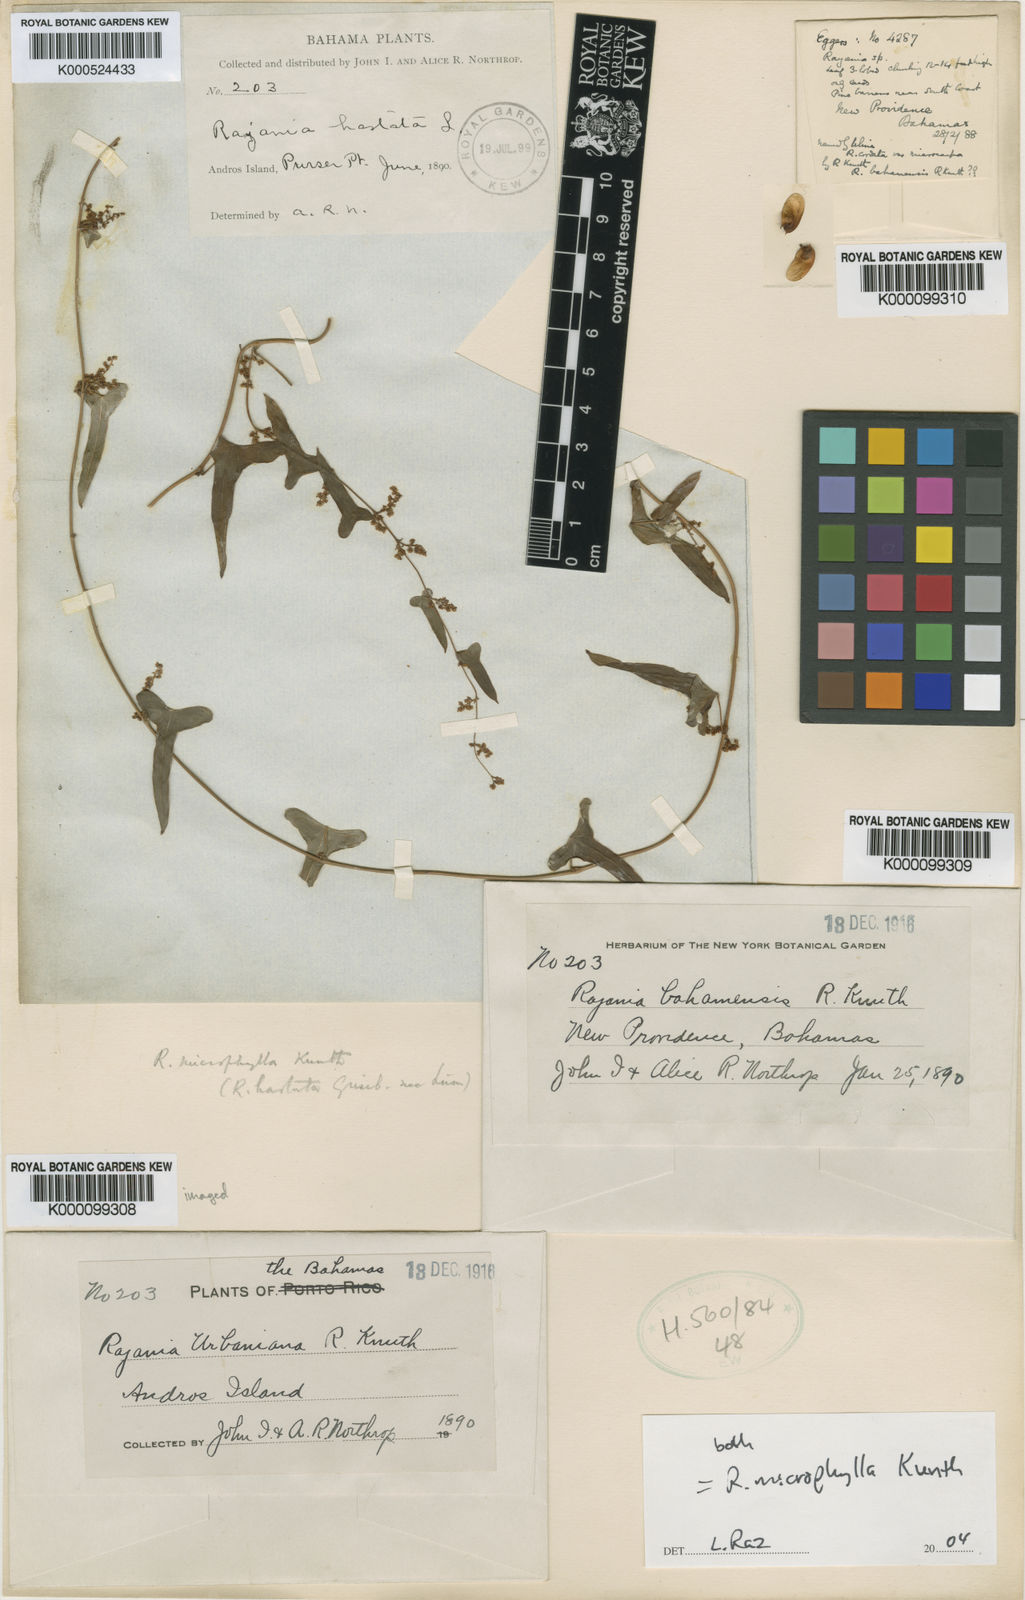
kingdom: Plantae
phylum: Tracheophyta
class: Liliopsida
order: Dioscoreales
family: Dioscoreaceae
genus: Dioscorea
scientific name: Dioscorea
